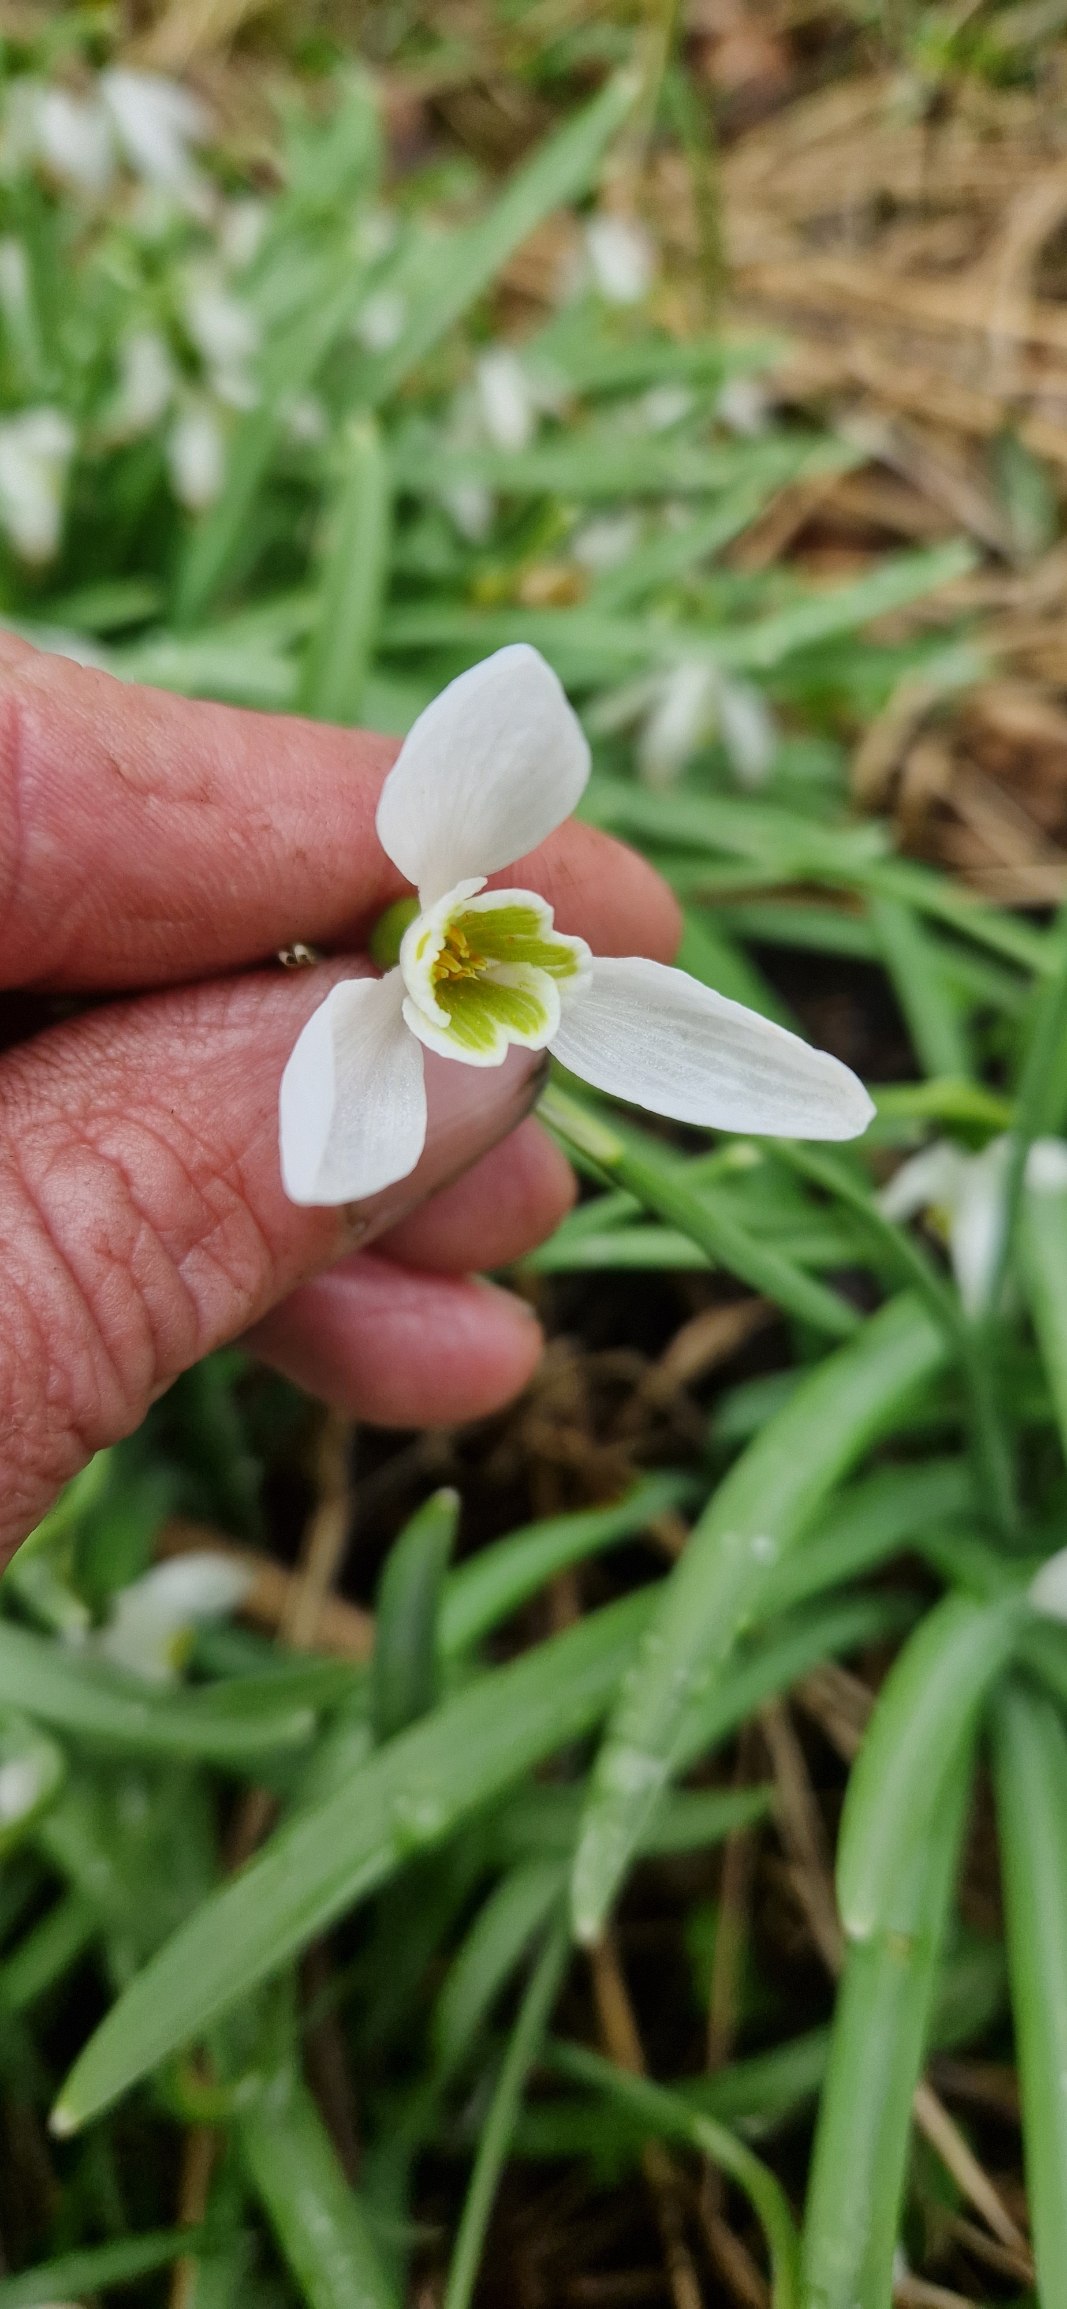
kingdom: Plantae
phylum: Tracheophyta
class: Liliopsida
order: Asparagales
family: Amaryllidaceae
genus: Galanthus
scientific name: Galanthus nivalis
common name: Vintergæk
